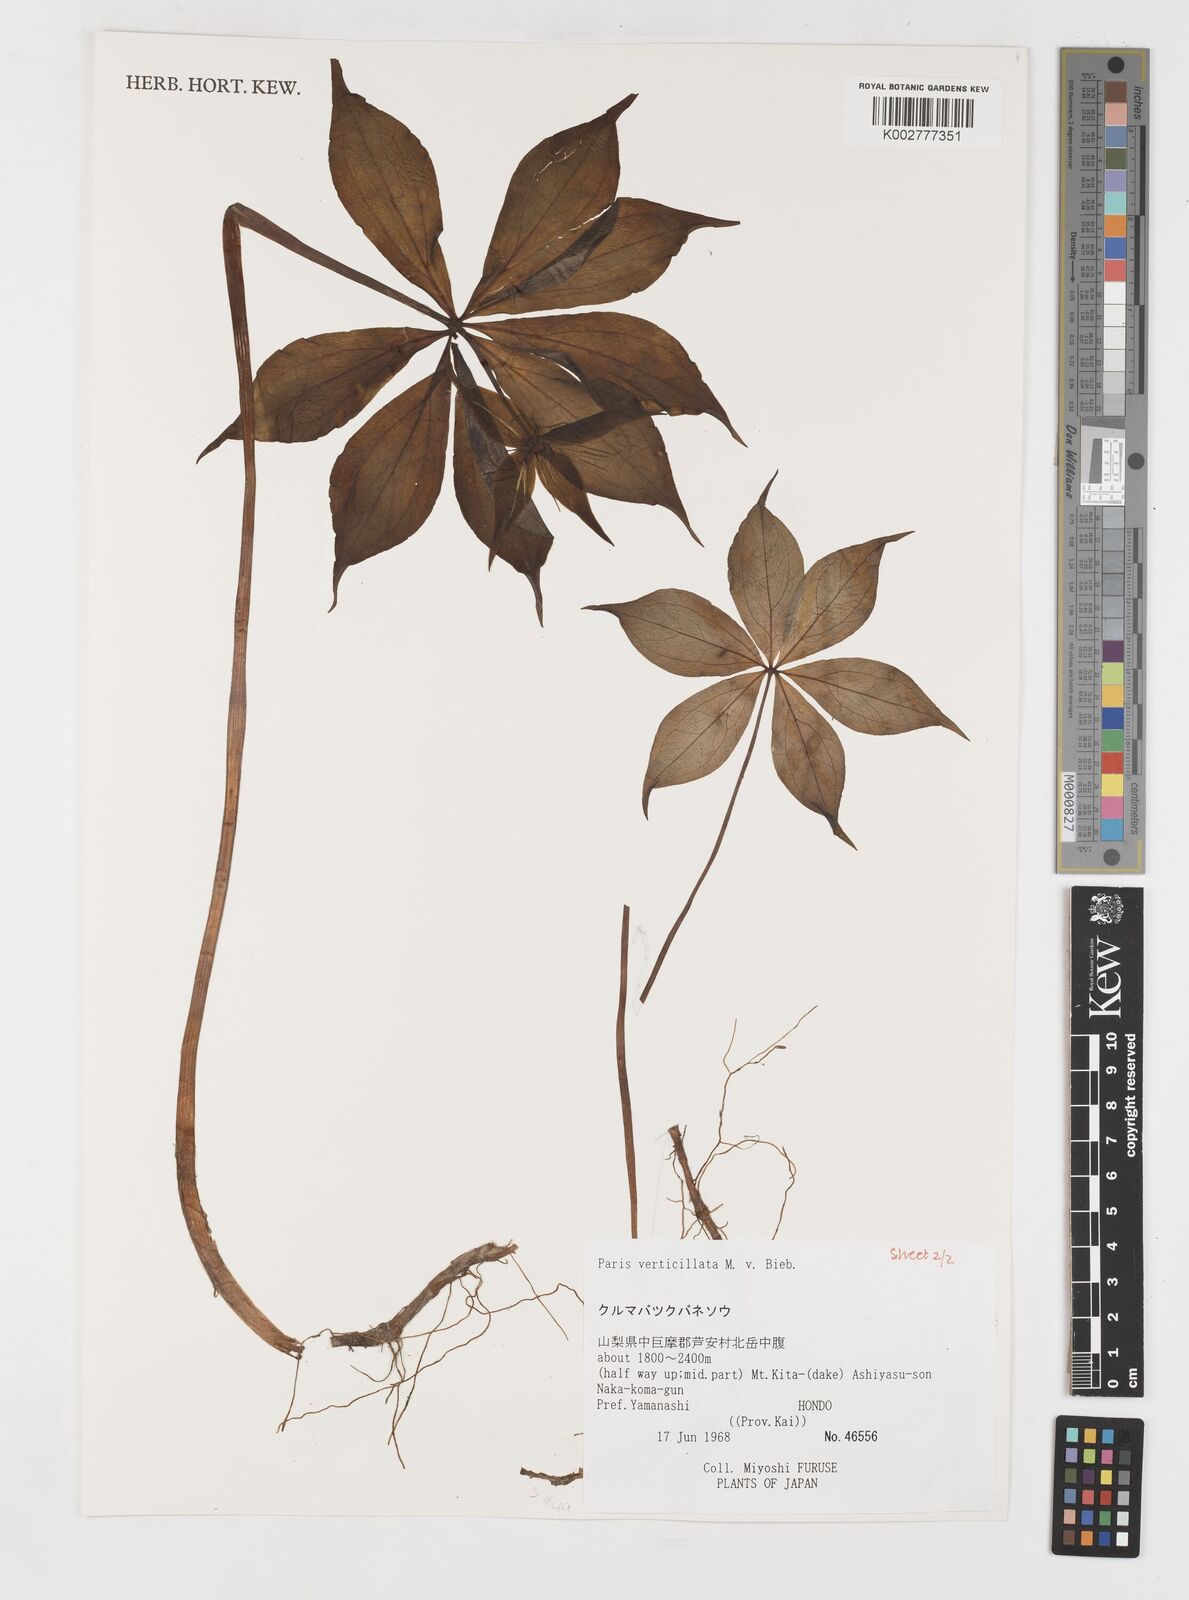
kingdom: Plantae
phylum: Tracheophyta
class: Liliopsida
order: Liliales
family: Melanthiaceae
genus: Paris
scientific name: Paris verticillata
